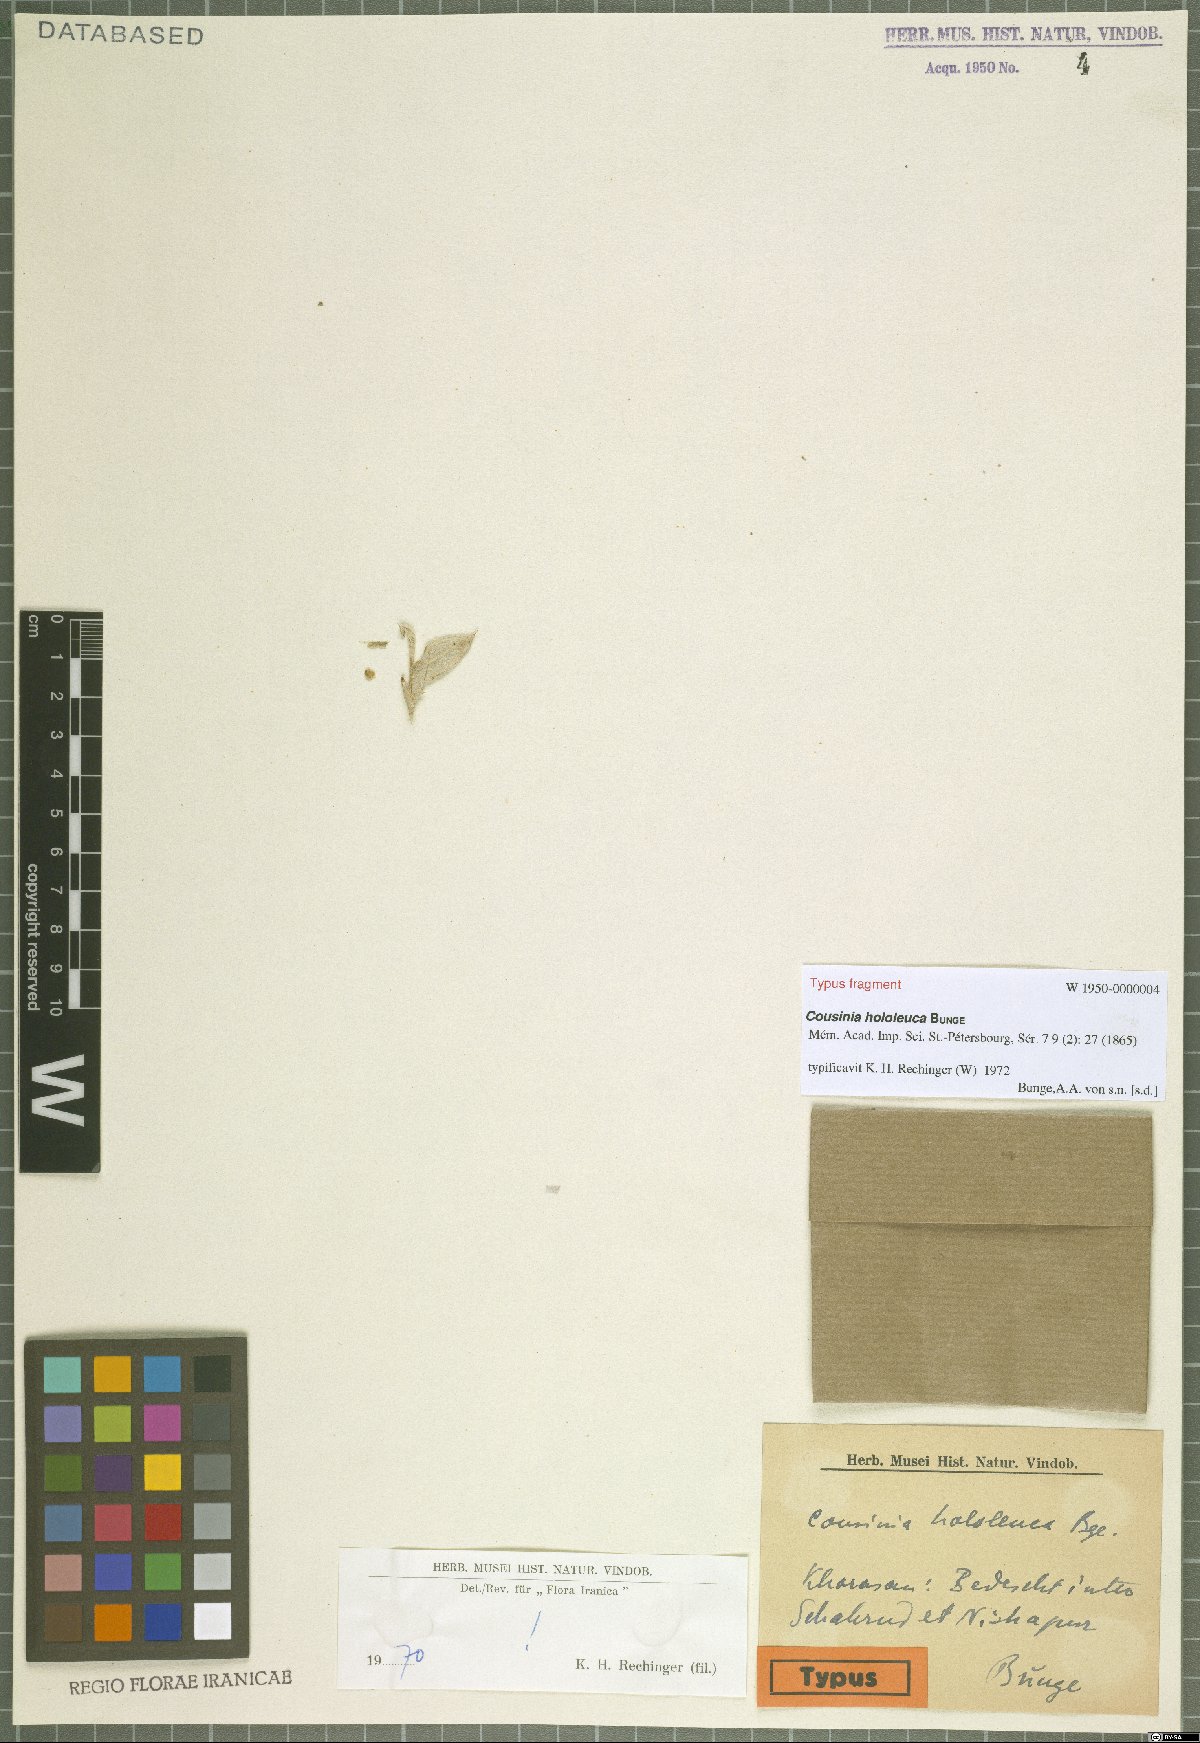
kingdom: Plantae
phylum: Tracheophyta
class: Magnoliopsida
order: Asterales
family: Asteraceae
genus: Cousinia
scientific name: Cousinia hololeuca
